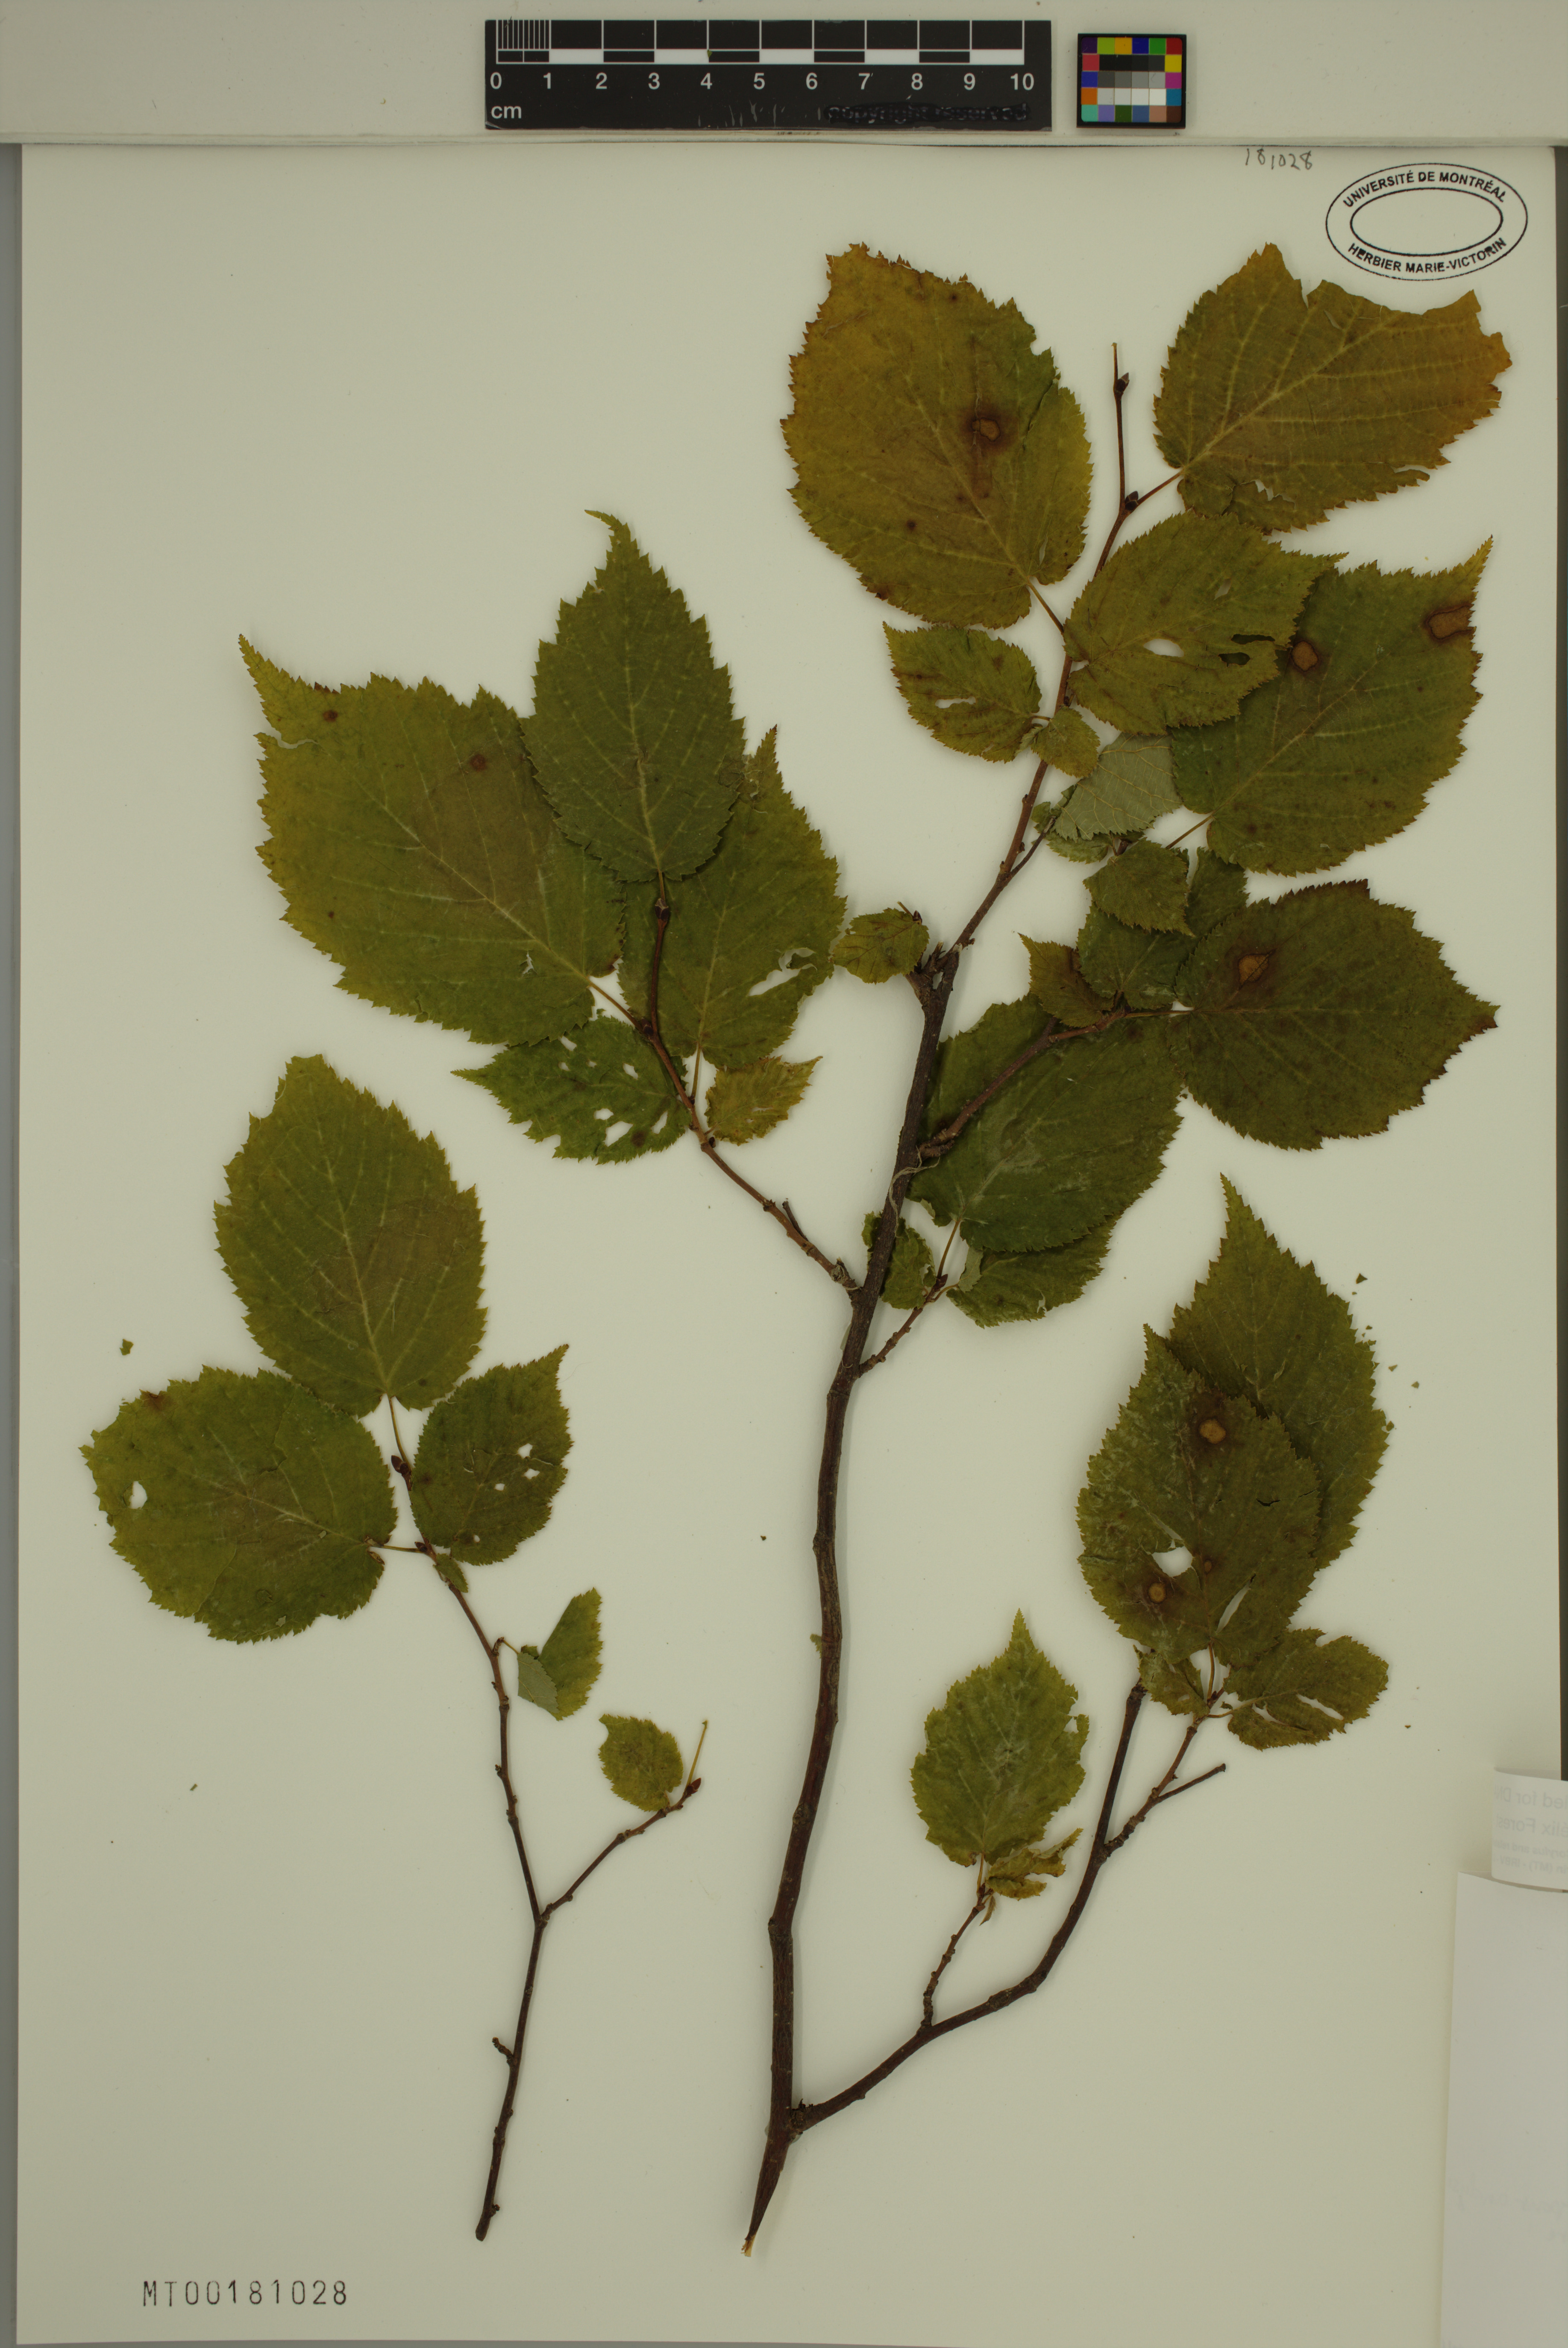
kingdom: Plantae
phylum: Tracheophyta
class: Magnoliopsida
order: Fagales
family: Betulaceae
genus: Corylus
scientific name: Corylus cornuta
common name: Beaked hazel
